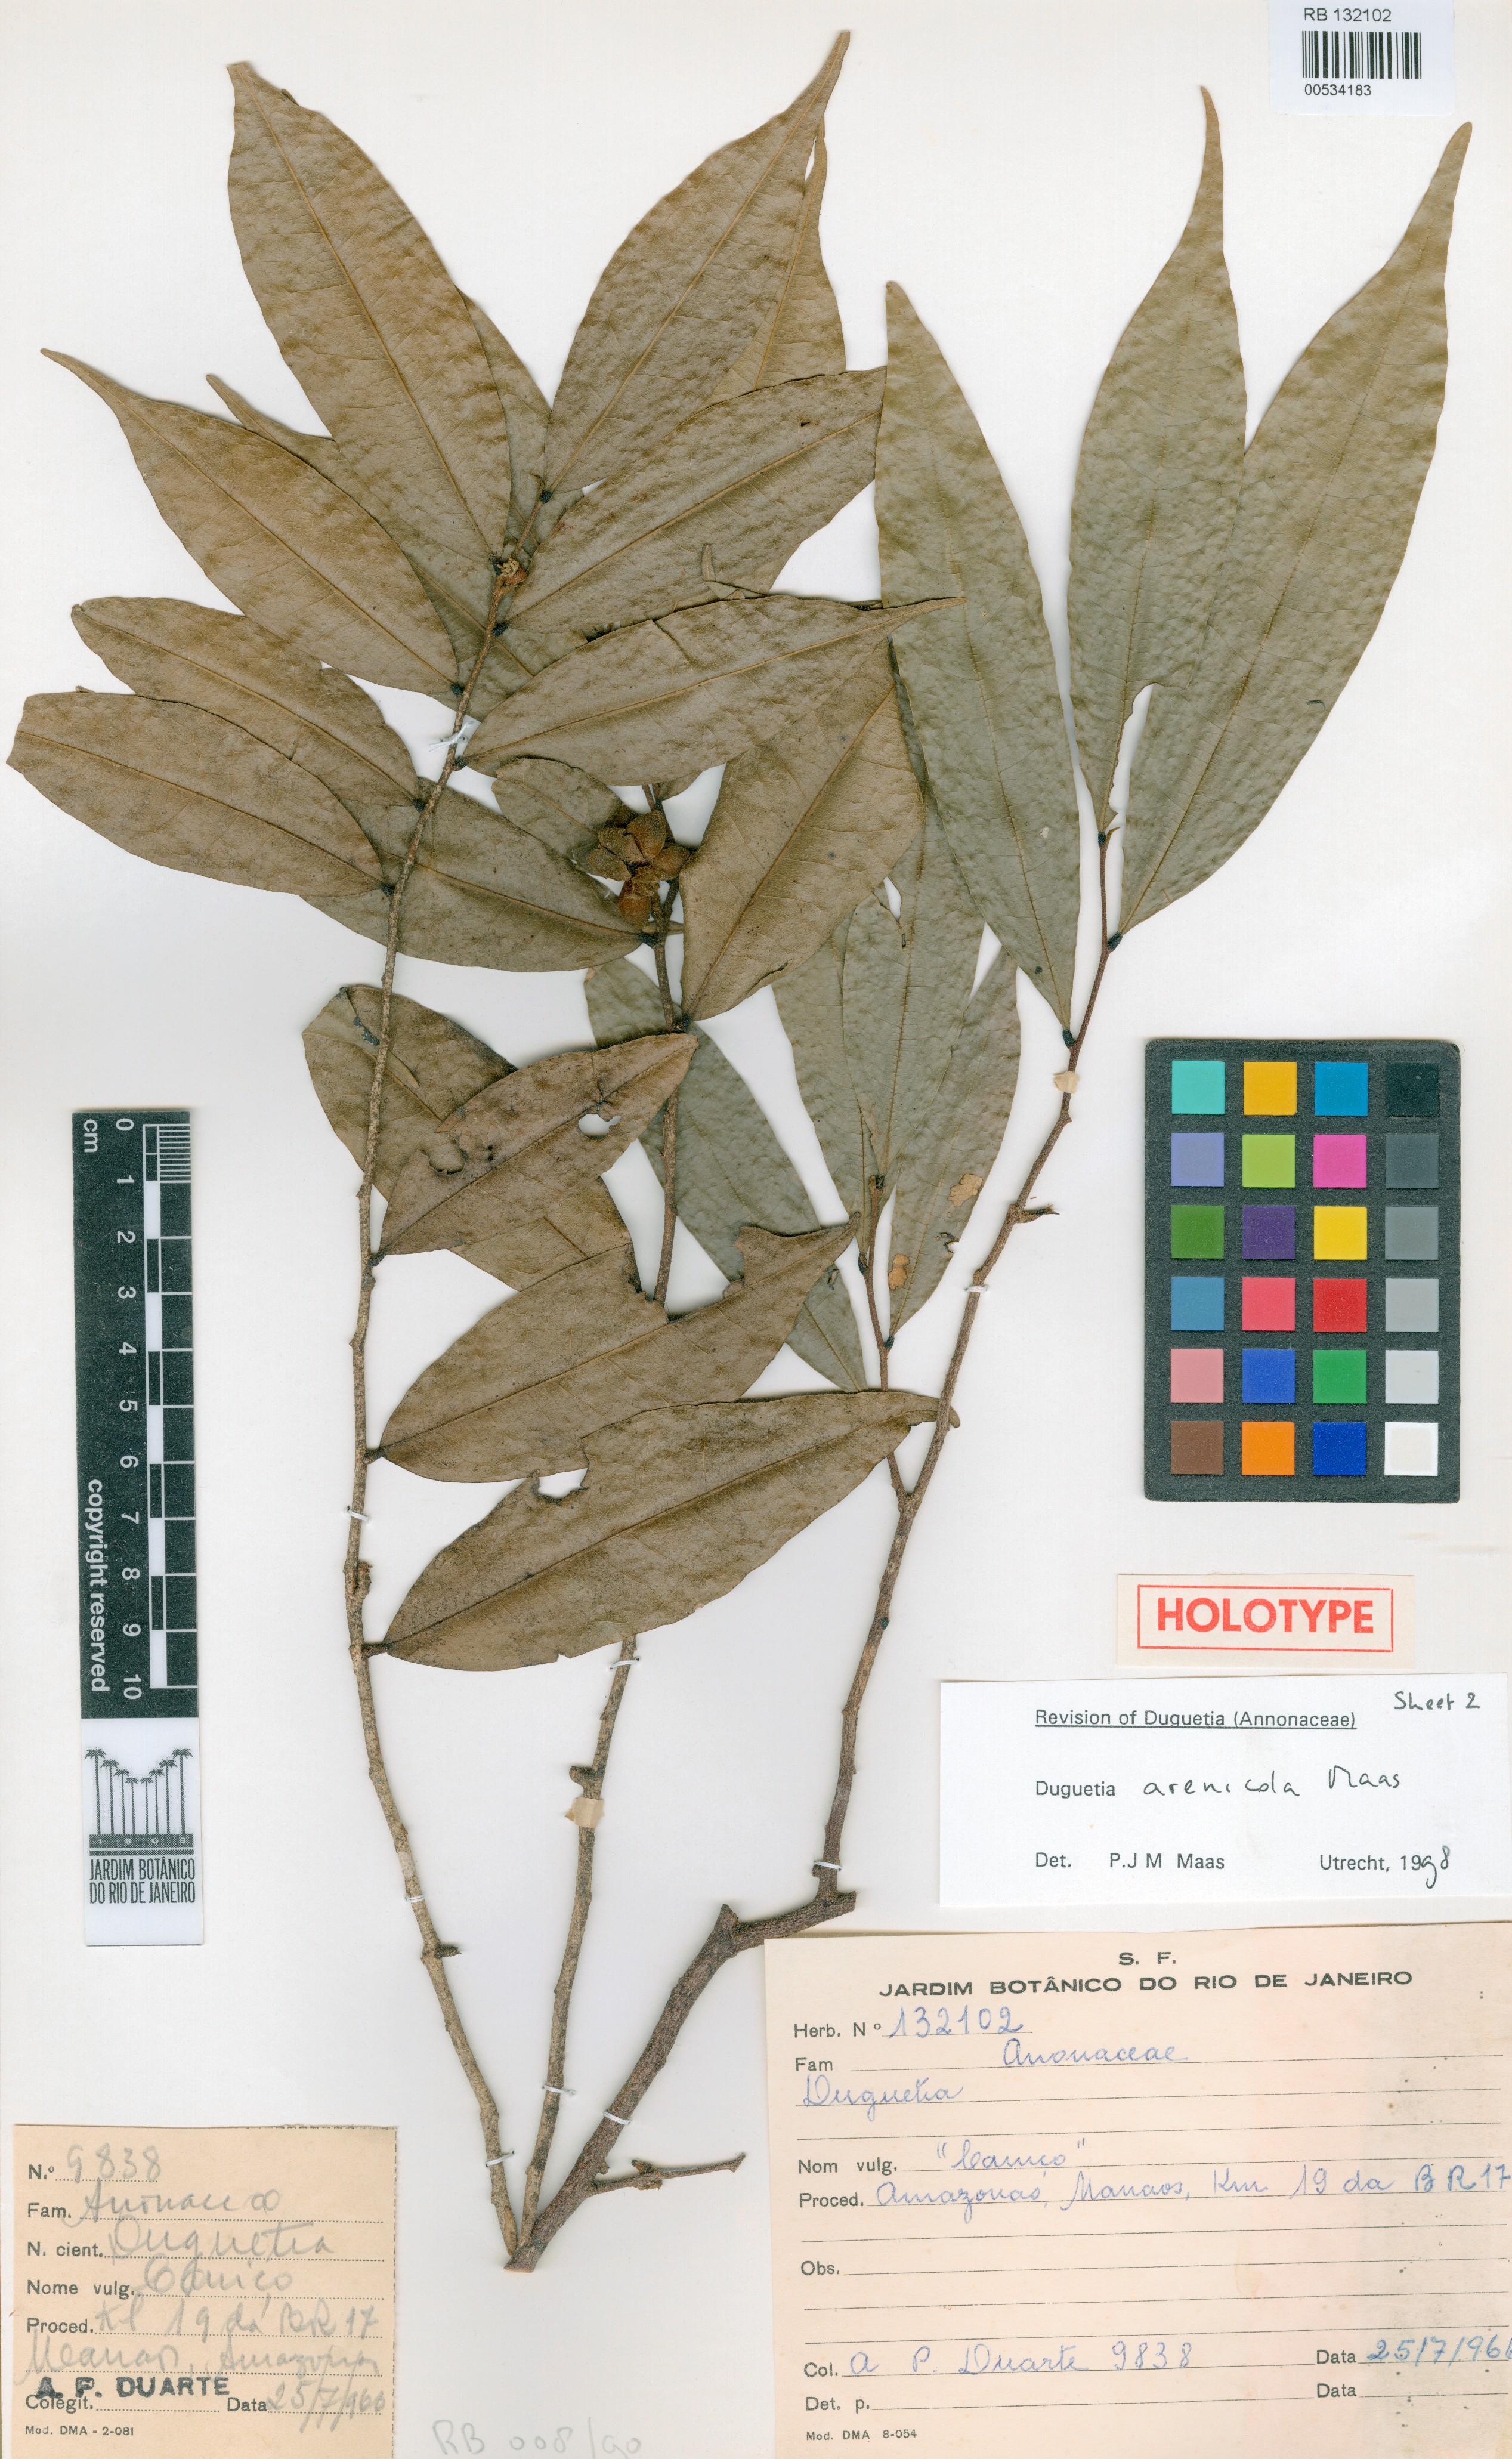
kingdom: Plantae
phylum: Tracheophyta
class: Magnoliopsida
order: Magnoliales
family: Annonaceae
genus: Duguetia
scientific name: Duguetia arenicola
